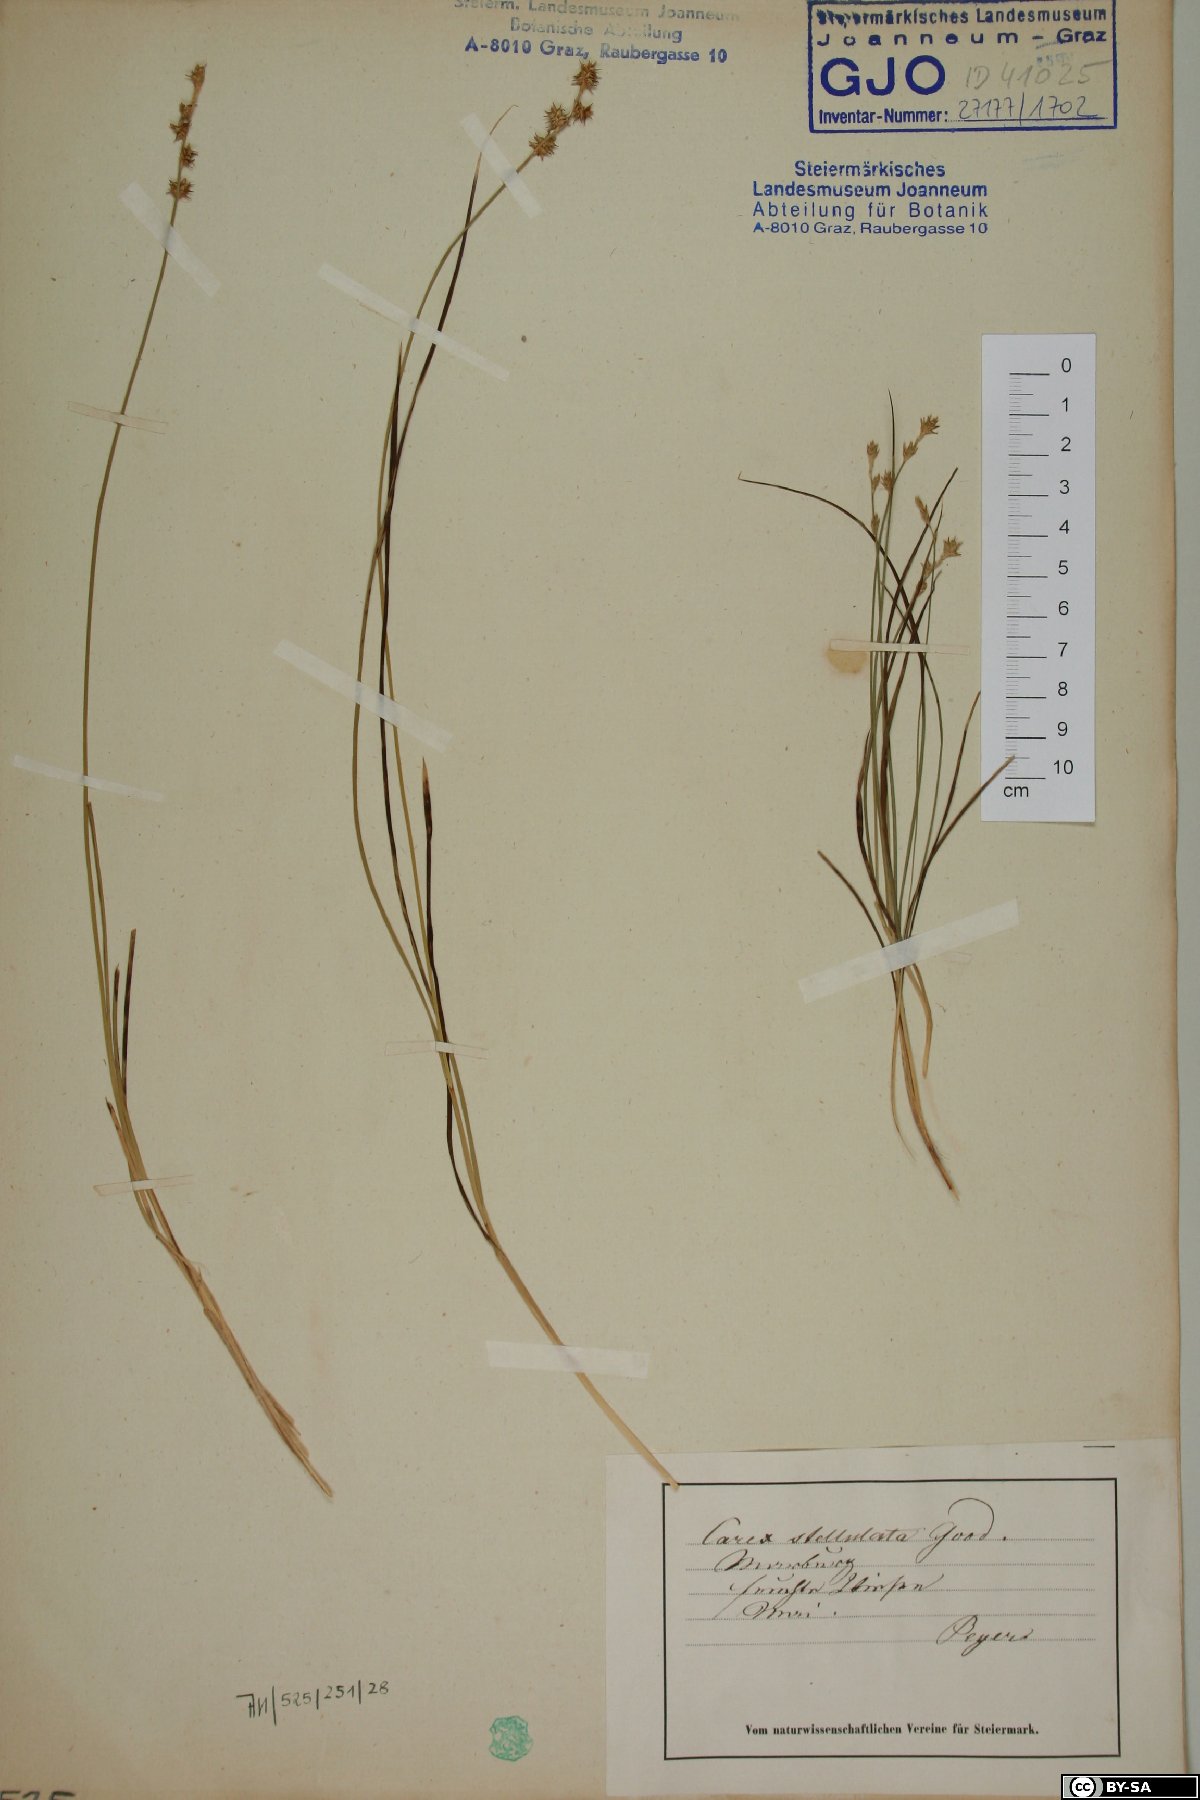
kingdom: Plantae
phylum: Tracheophyta
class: Liliopsida
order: Poales
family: Cyperaceae
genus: Carex
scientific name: Carex echinata
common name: Star sedge
